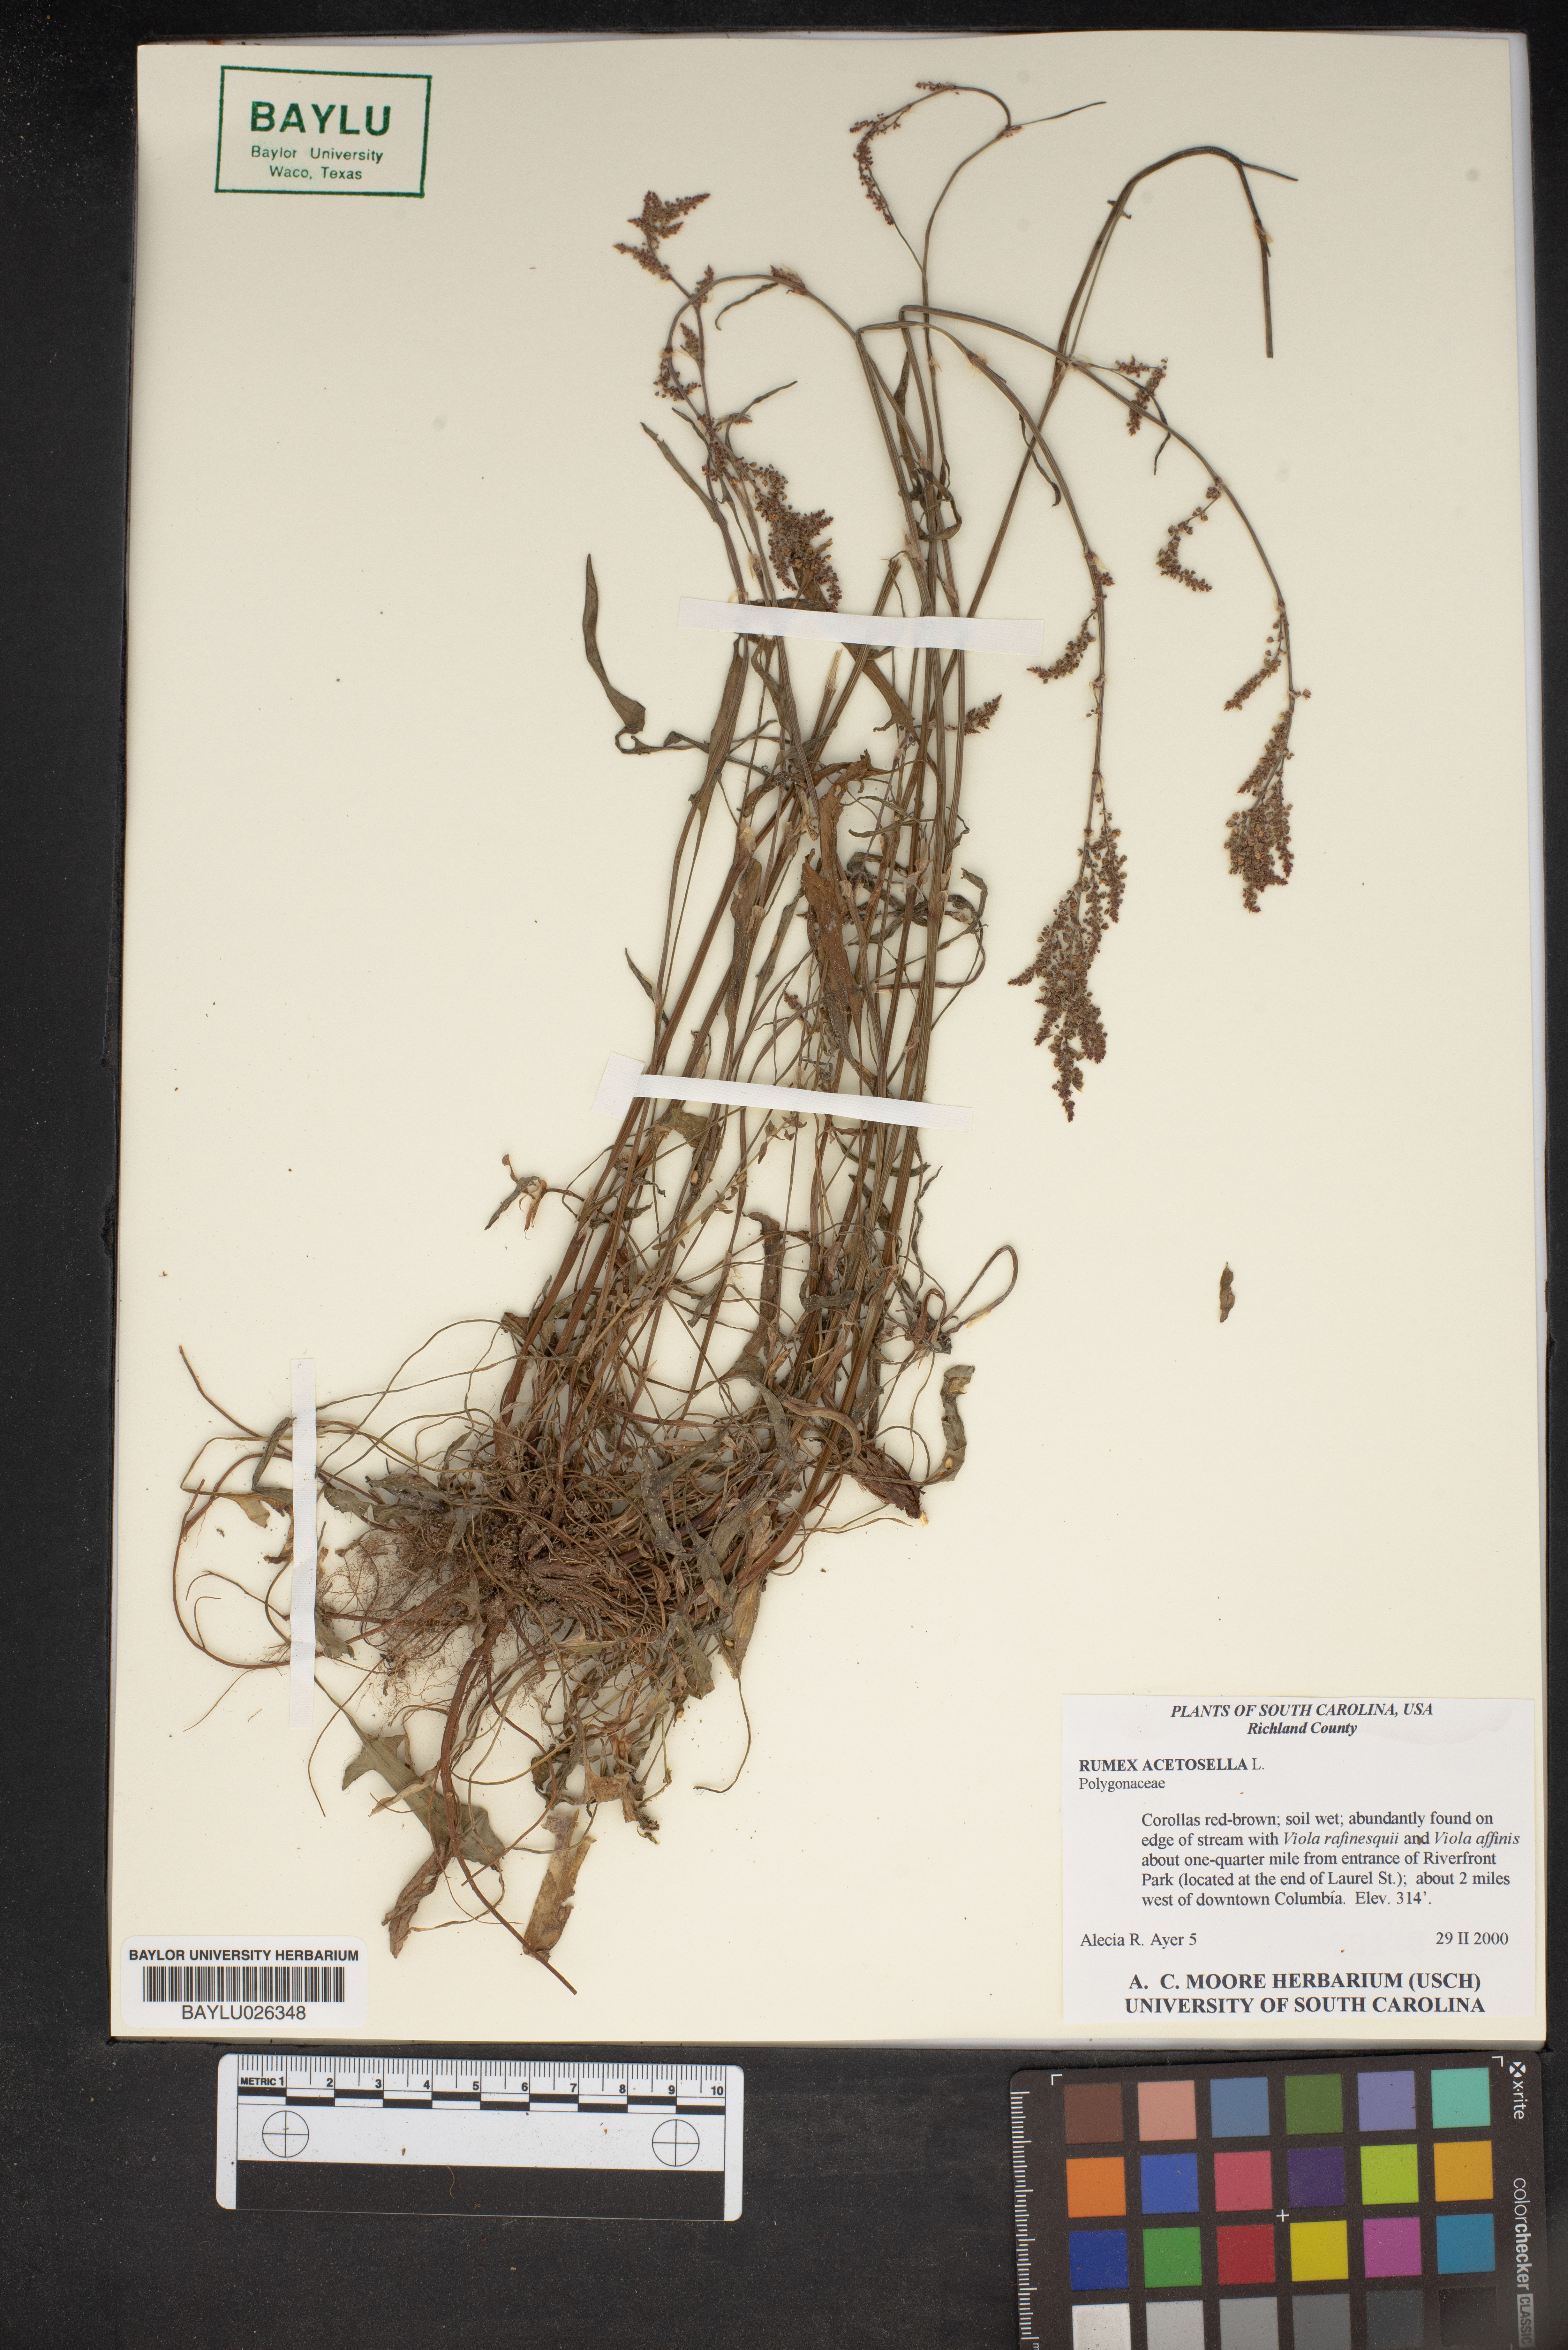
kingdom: Plantae
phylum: Tracheophyta
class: Magnoliopsida
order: Caryophyllales
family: Polygonaceae
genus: Rumex
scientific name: Rumex acetosella
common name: Common sheep sorrel
